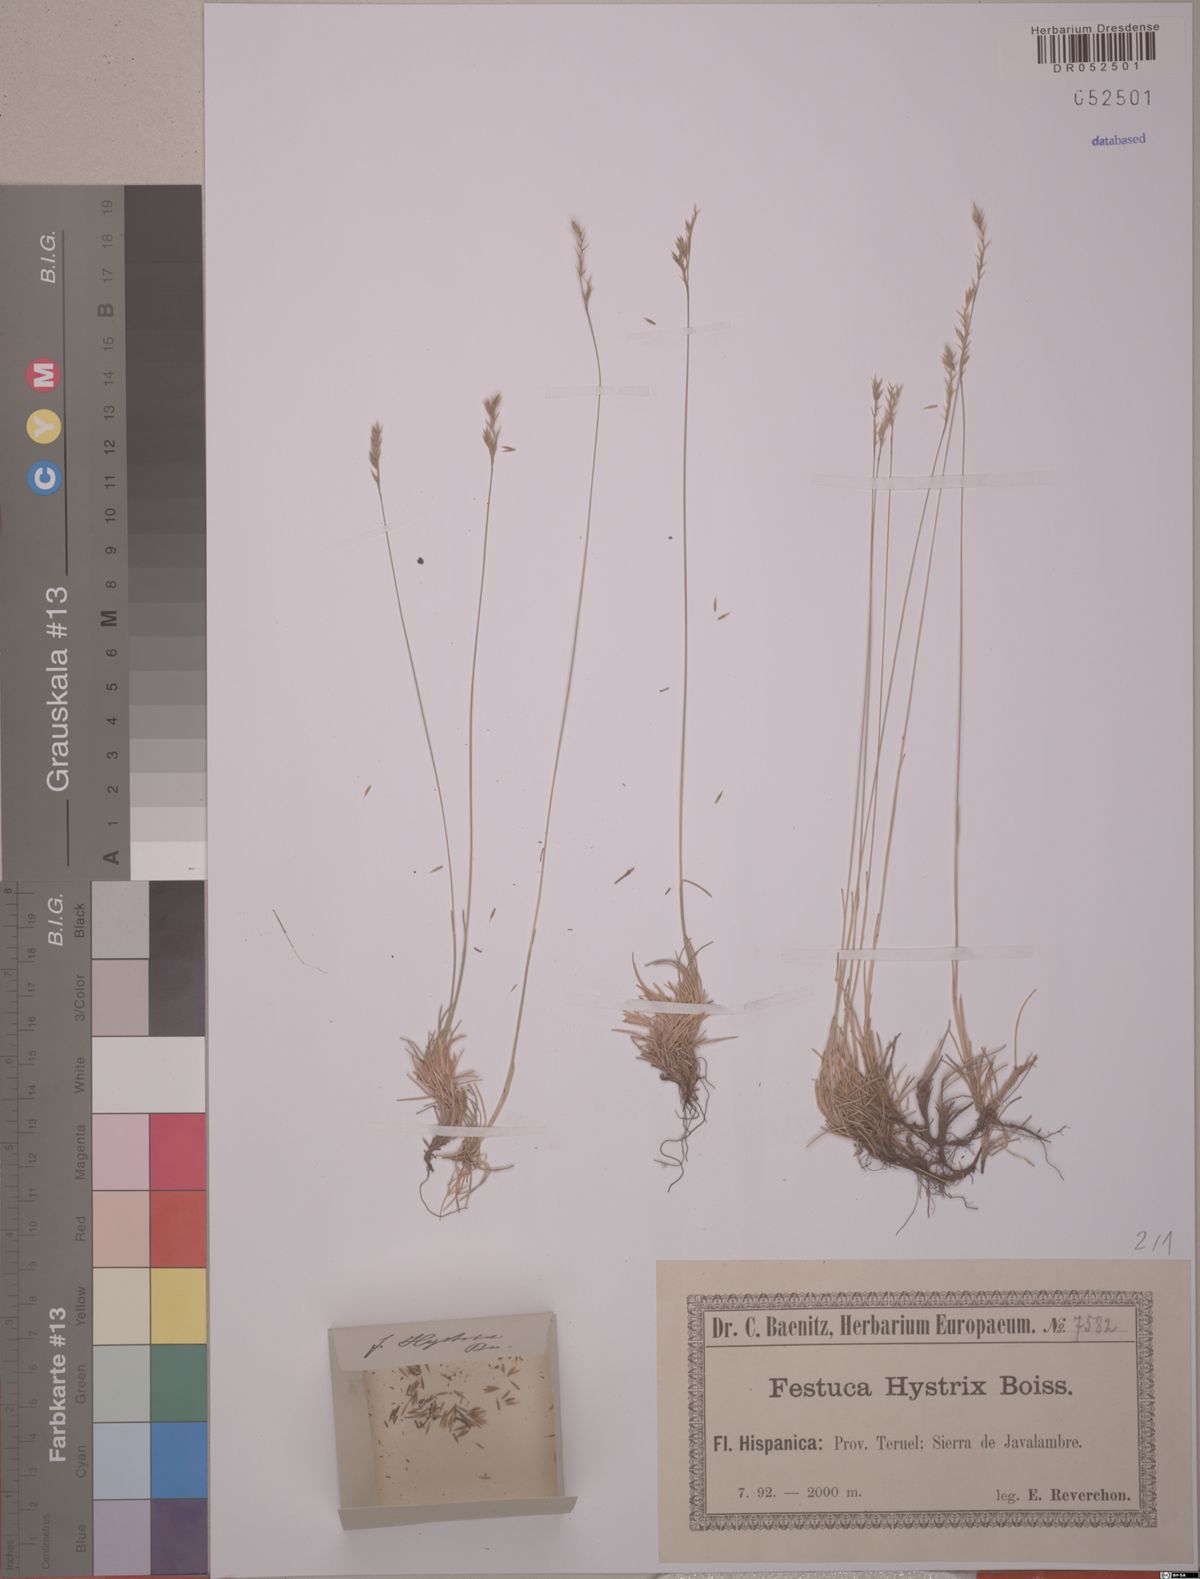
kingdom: Plantae
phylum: Tracheophyta
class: Liliopsida
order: Poales
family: Poaceae
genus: Festuca
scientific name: Festuca hystrix
